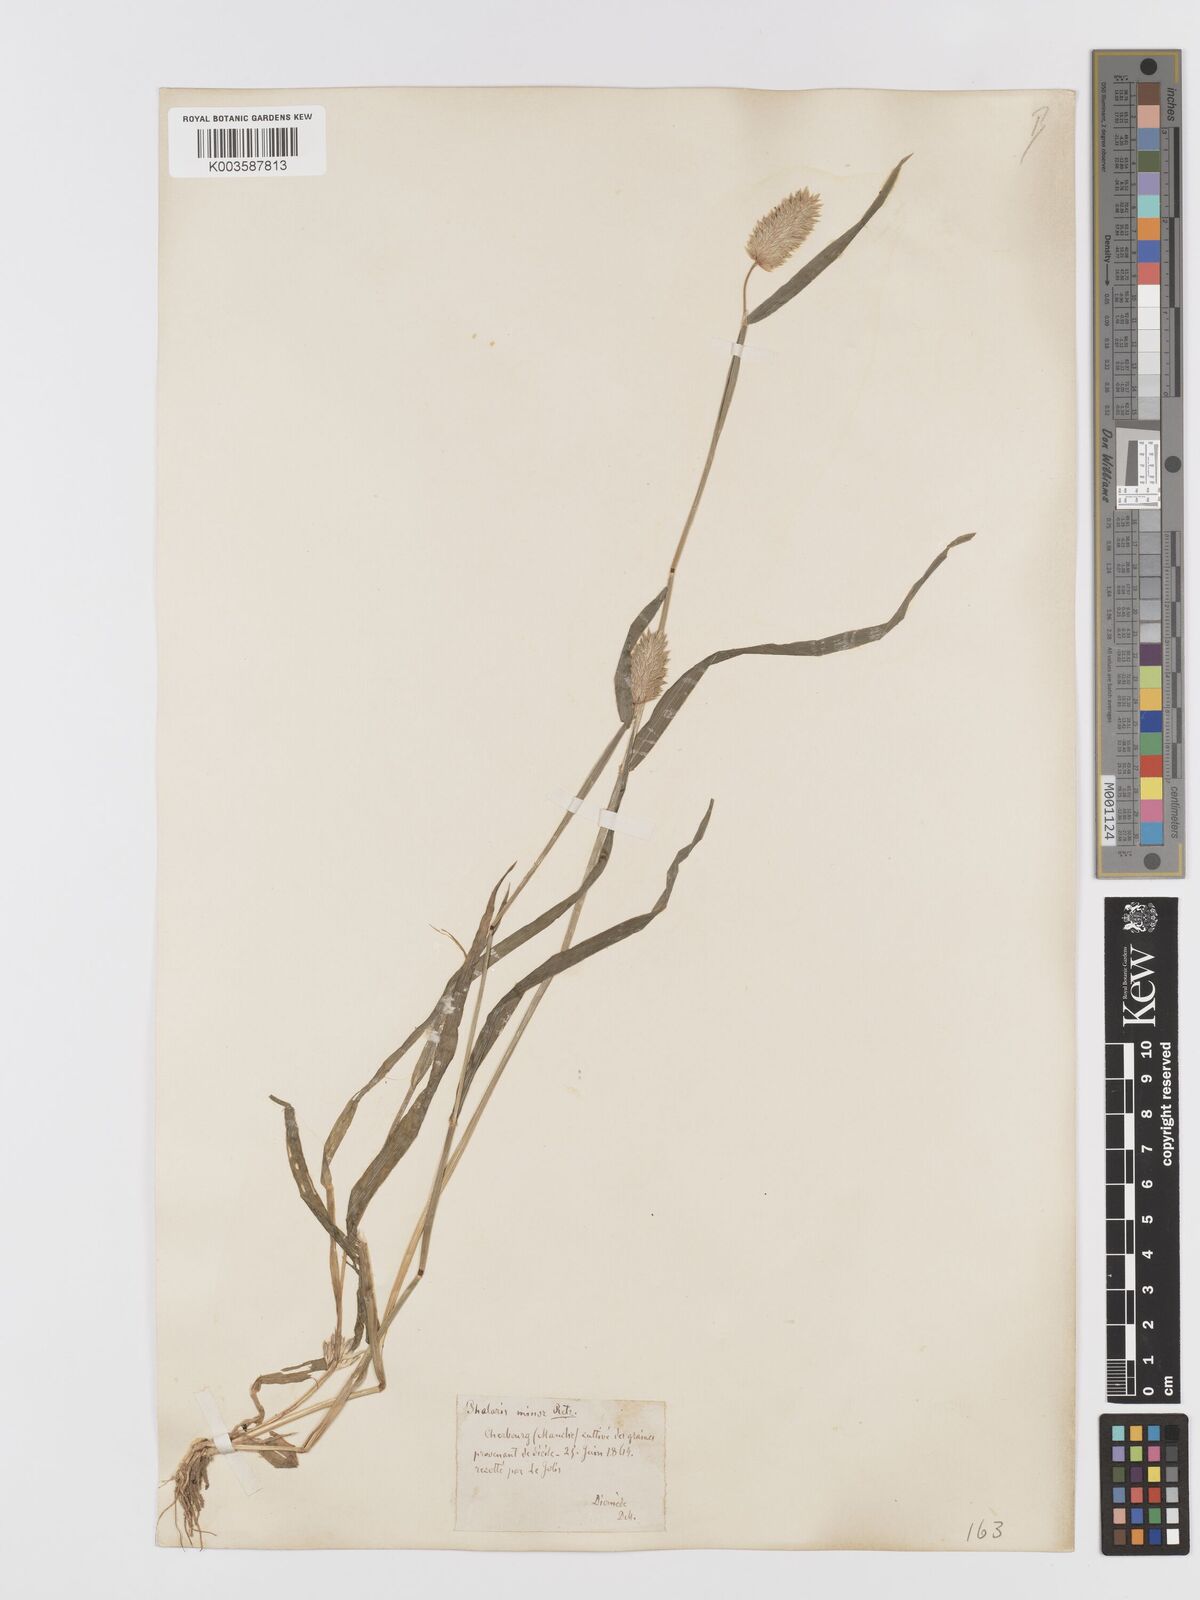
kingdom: Plantae
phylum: Tracheophyta
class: Liliopsida
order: Poales
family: Poaceae
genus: Phalaris
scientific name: Phalaris minor
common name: Littleseed canarygrass
